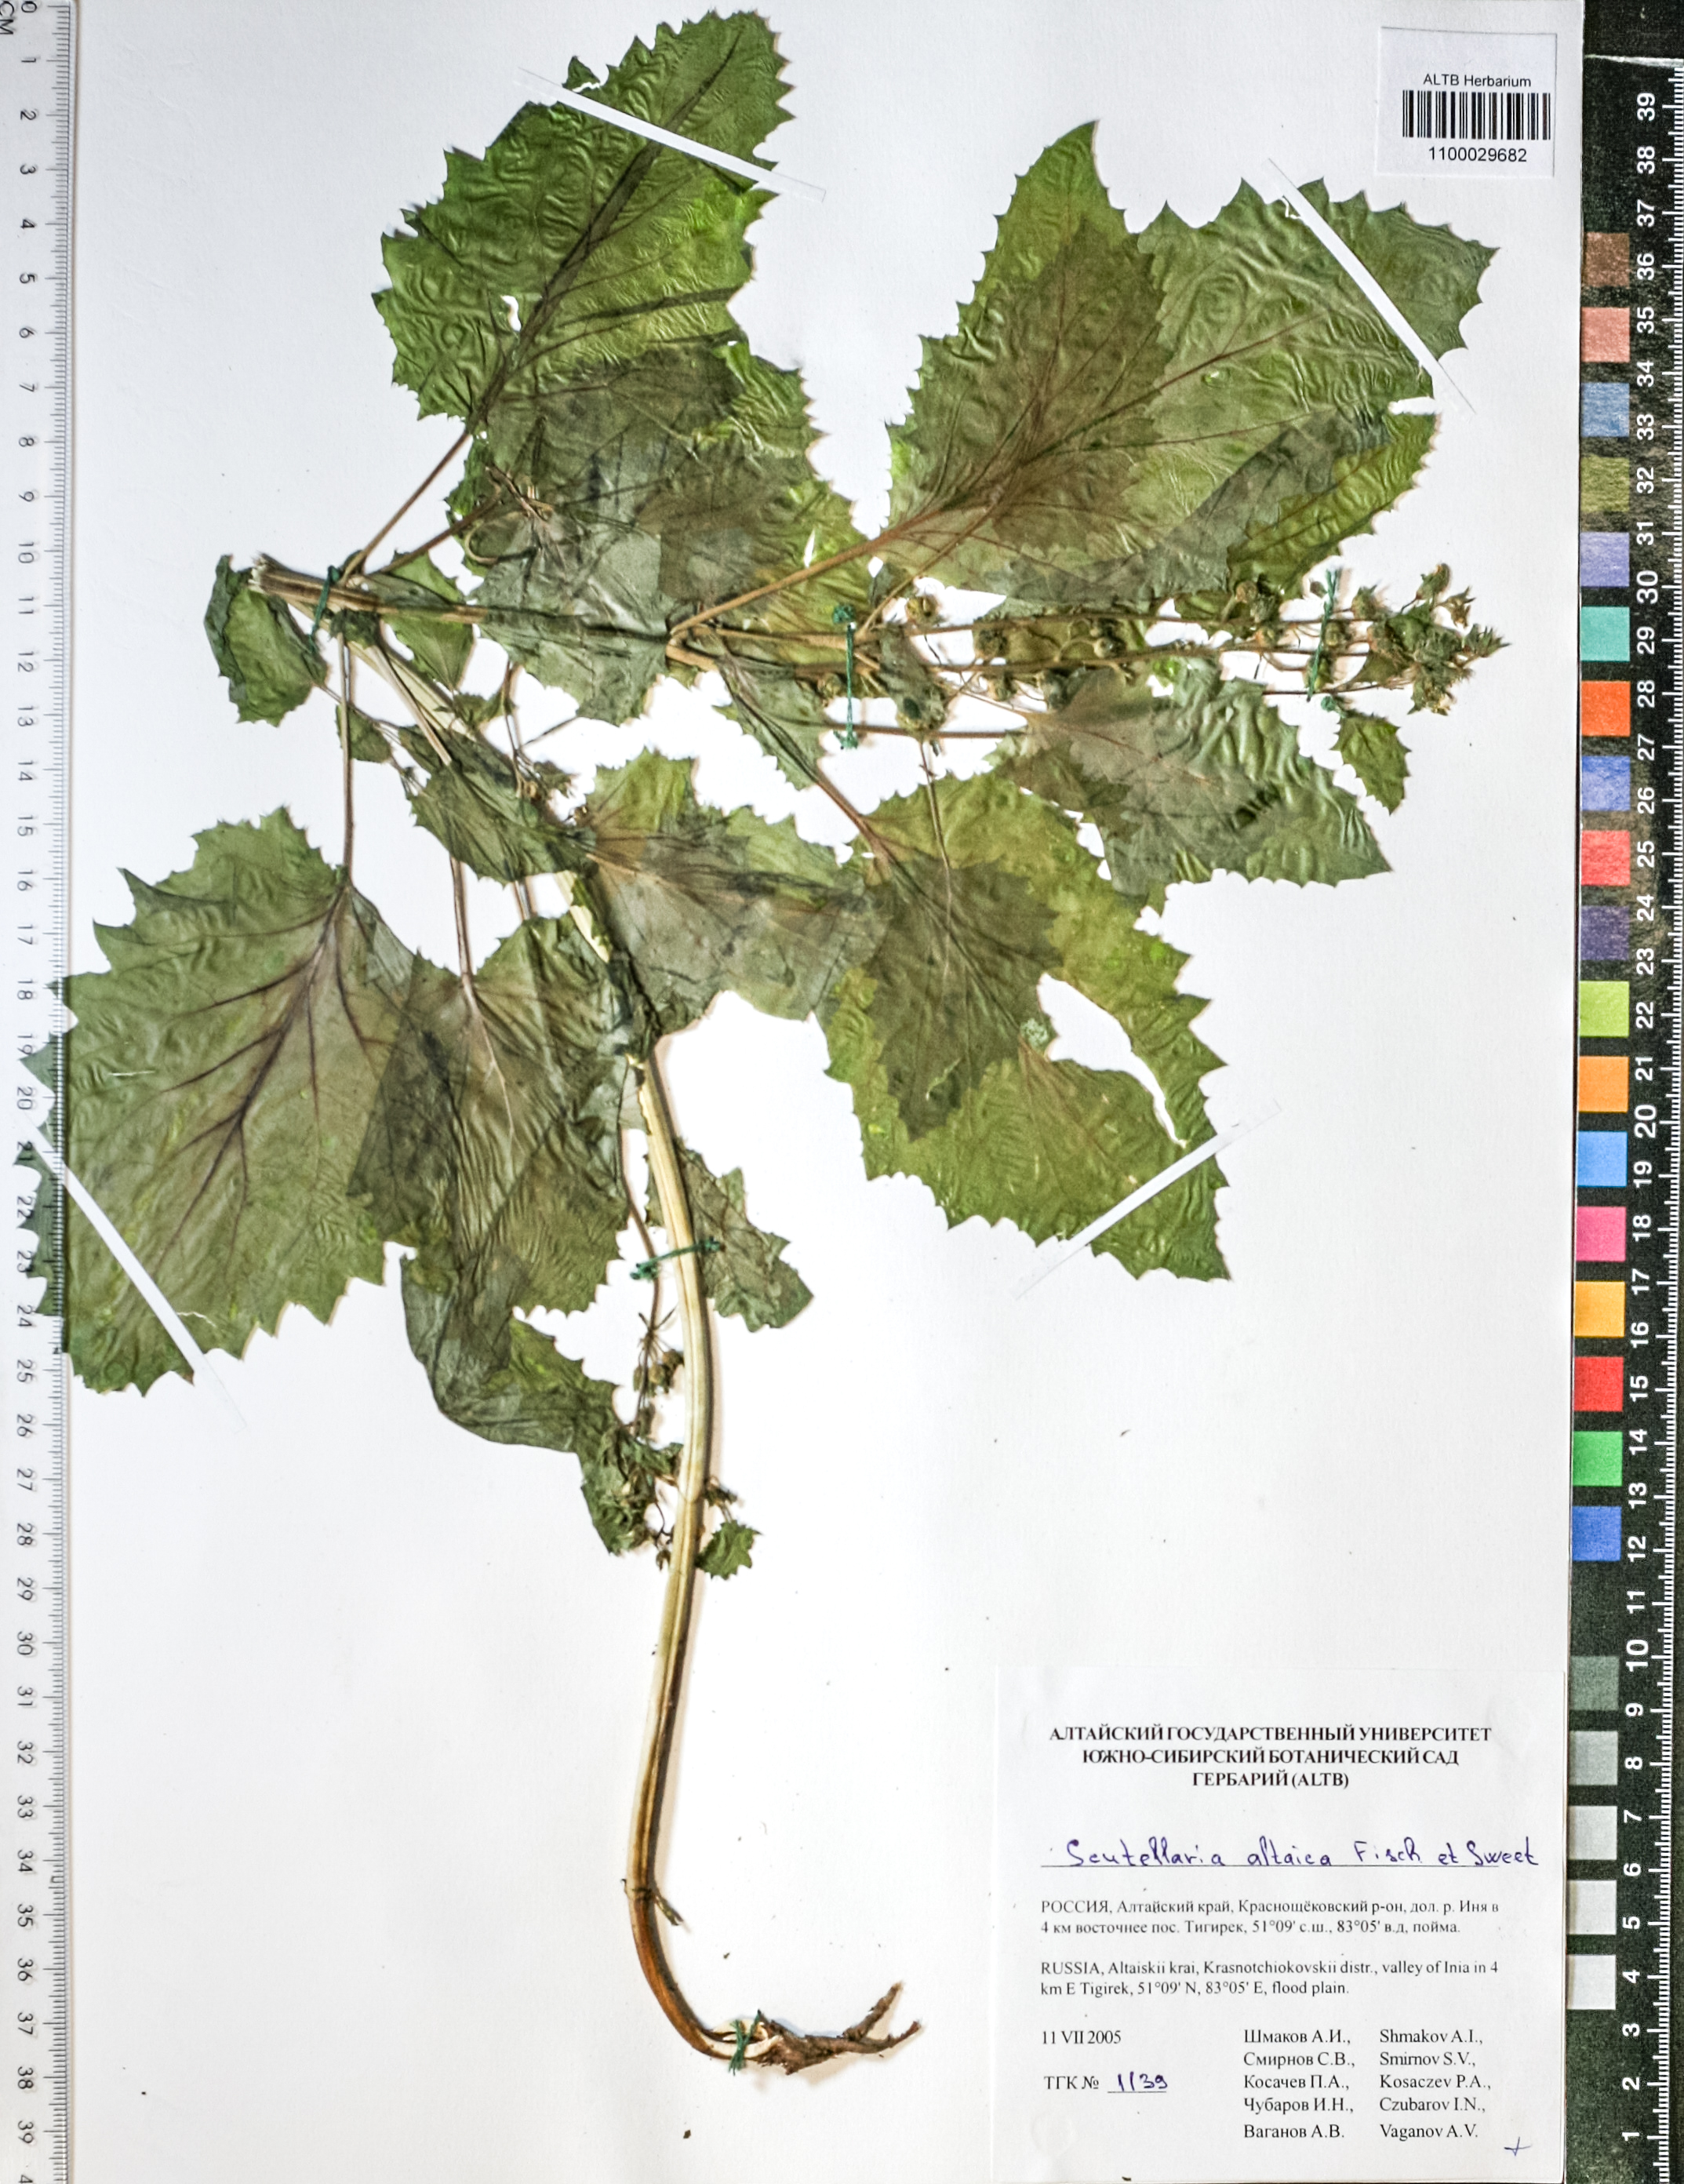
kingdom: Plantae
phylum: Tracheophyta
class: Magnoliopsida
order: Lamiales
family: Lamiaceae
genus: Scutellaria
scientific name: Scutellaria altaica
